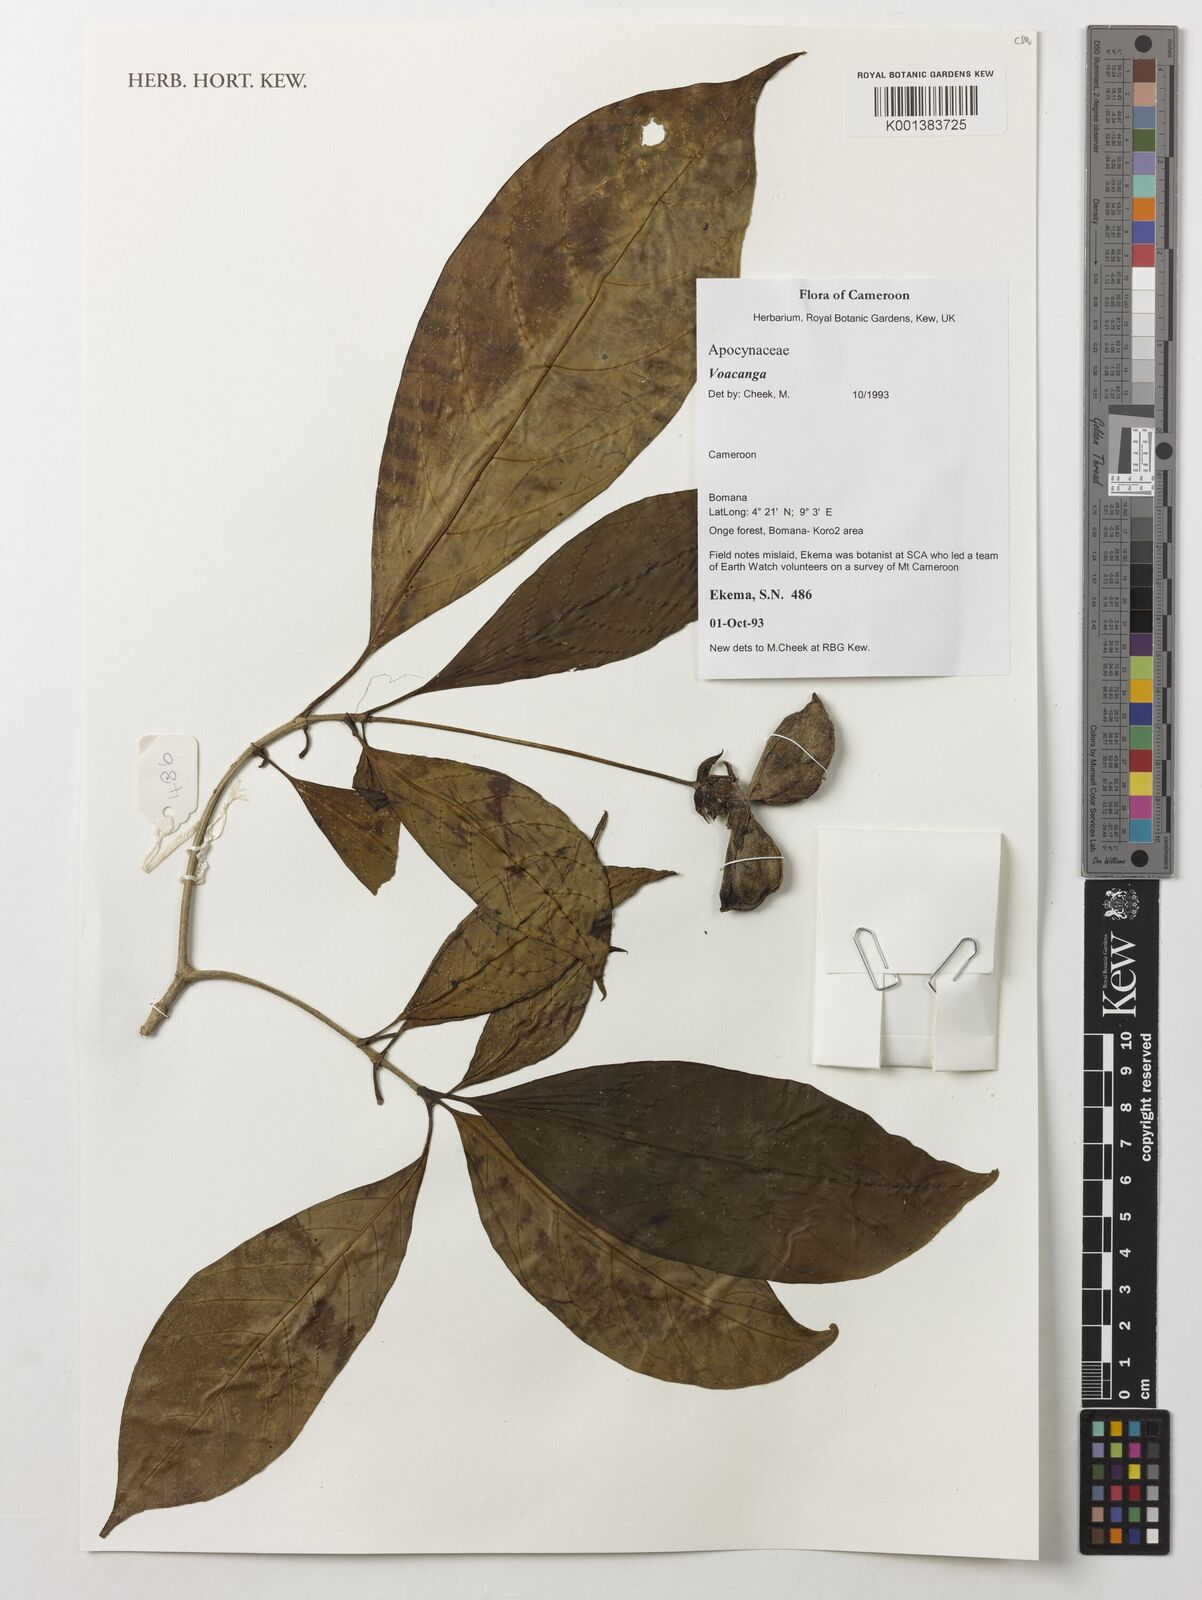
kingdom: Plantae
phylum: Tracheophyta
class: Magnoliopsida
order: Gentianales
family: Apocynaceae
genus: Voacanga
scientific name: Voacanga
